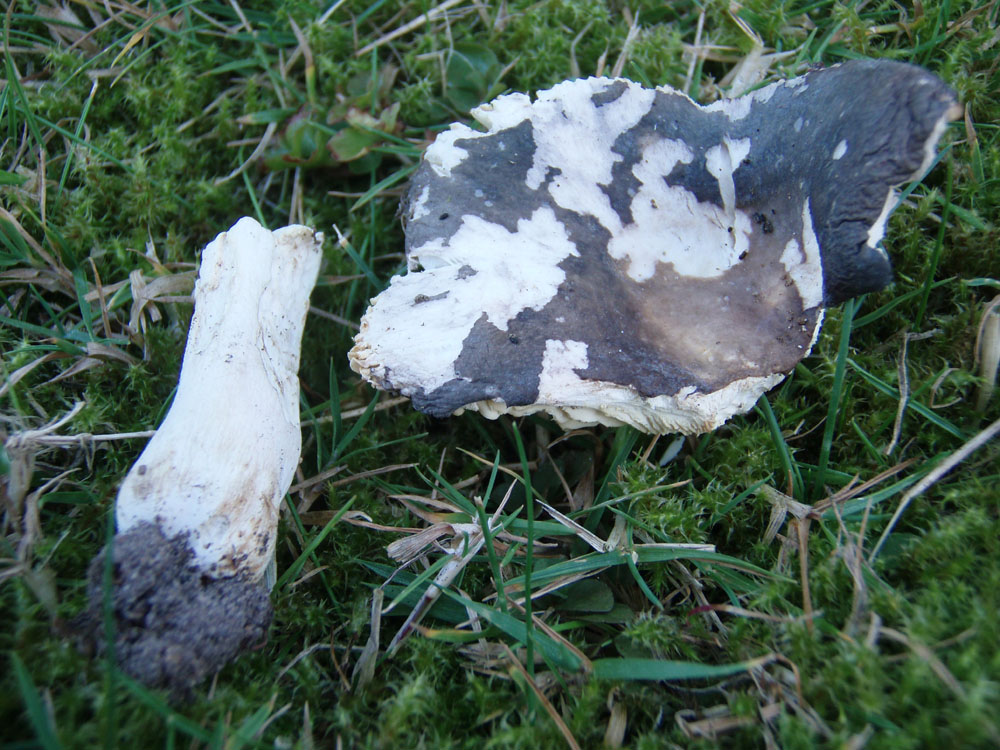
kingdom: Fungi
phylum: Basidiomycota
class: Agaricomycetes
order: Russulales
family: Russulaceae
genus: Russula
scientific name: Russula parazurea
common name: blågrå skørhat
